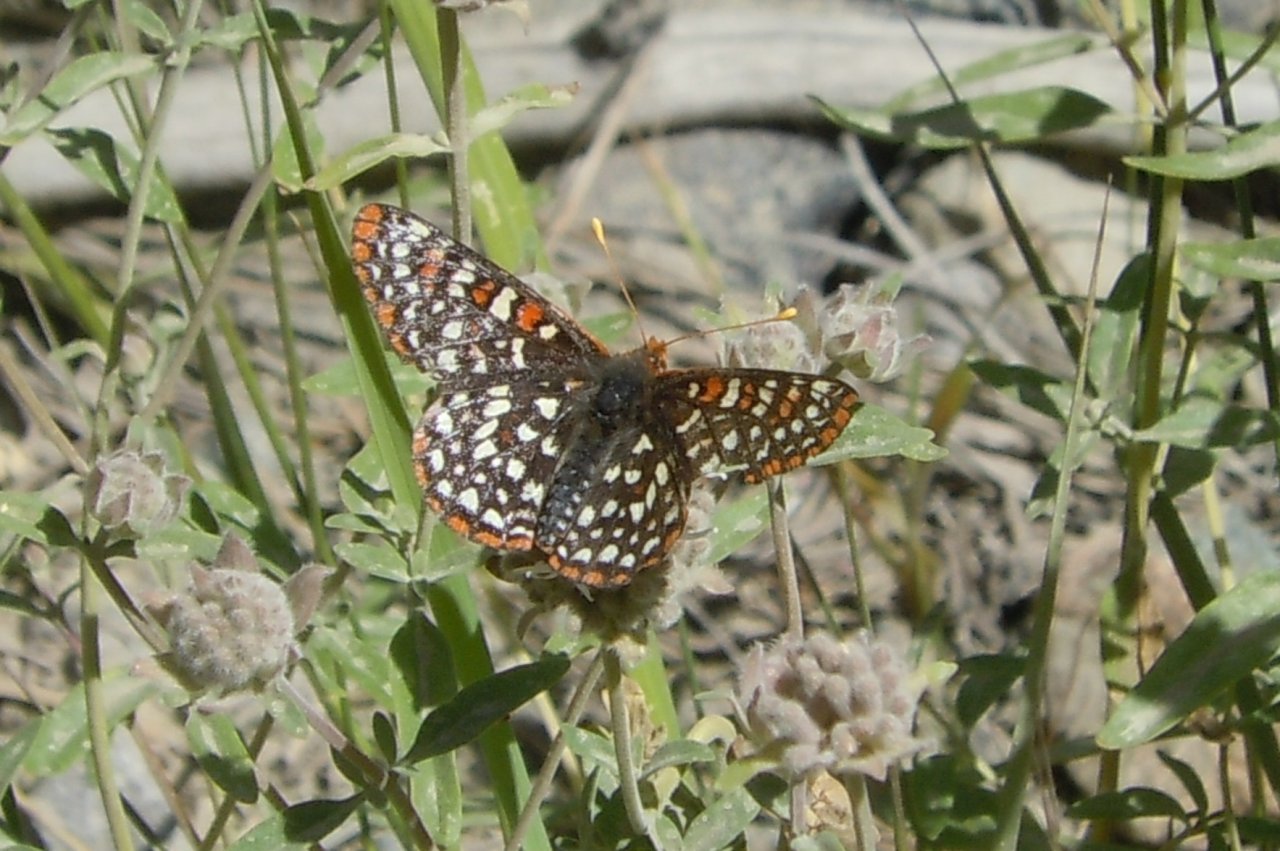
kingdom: Animalia
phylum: Arthropoda
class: Insecta
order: Lepidoptera
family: Nymphalidae
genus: Occidryas
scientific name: Occidryas chalcedona
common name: Chalcedon Checkerspot
